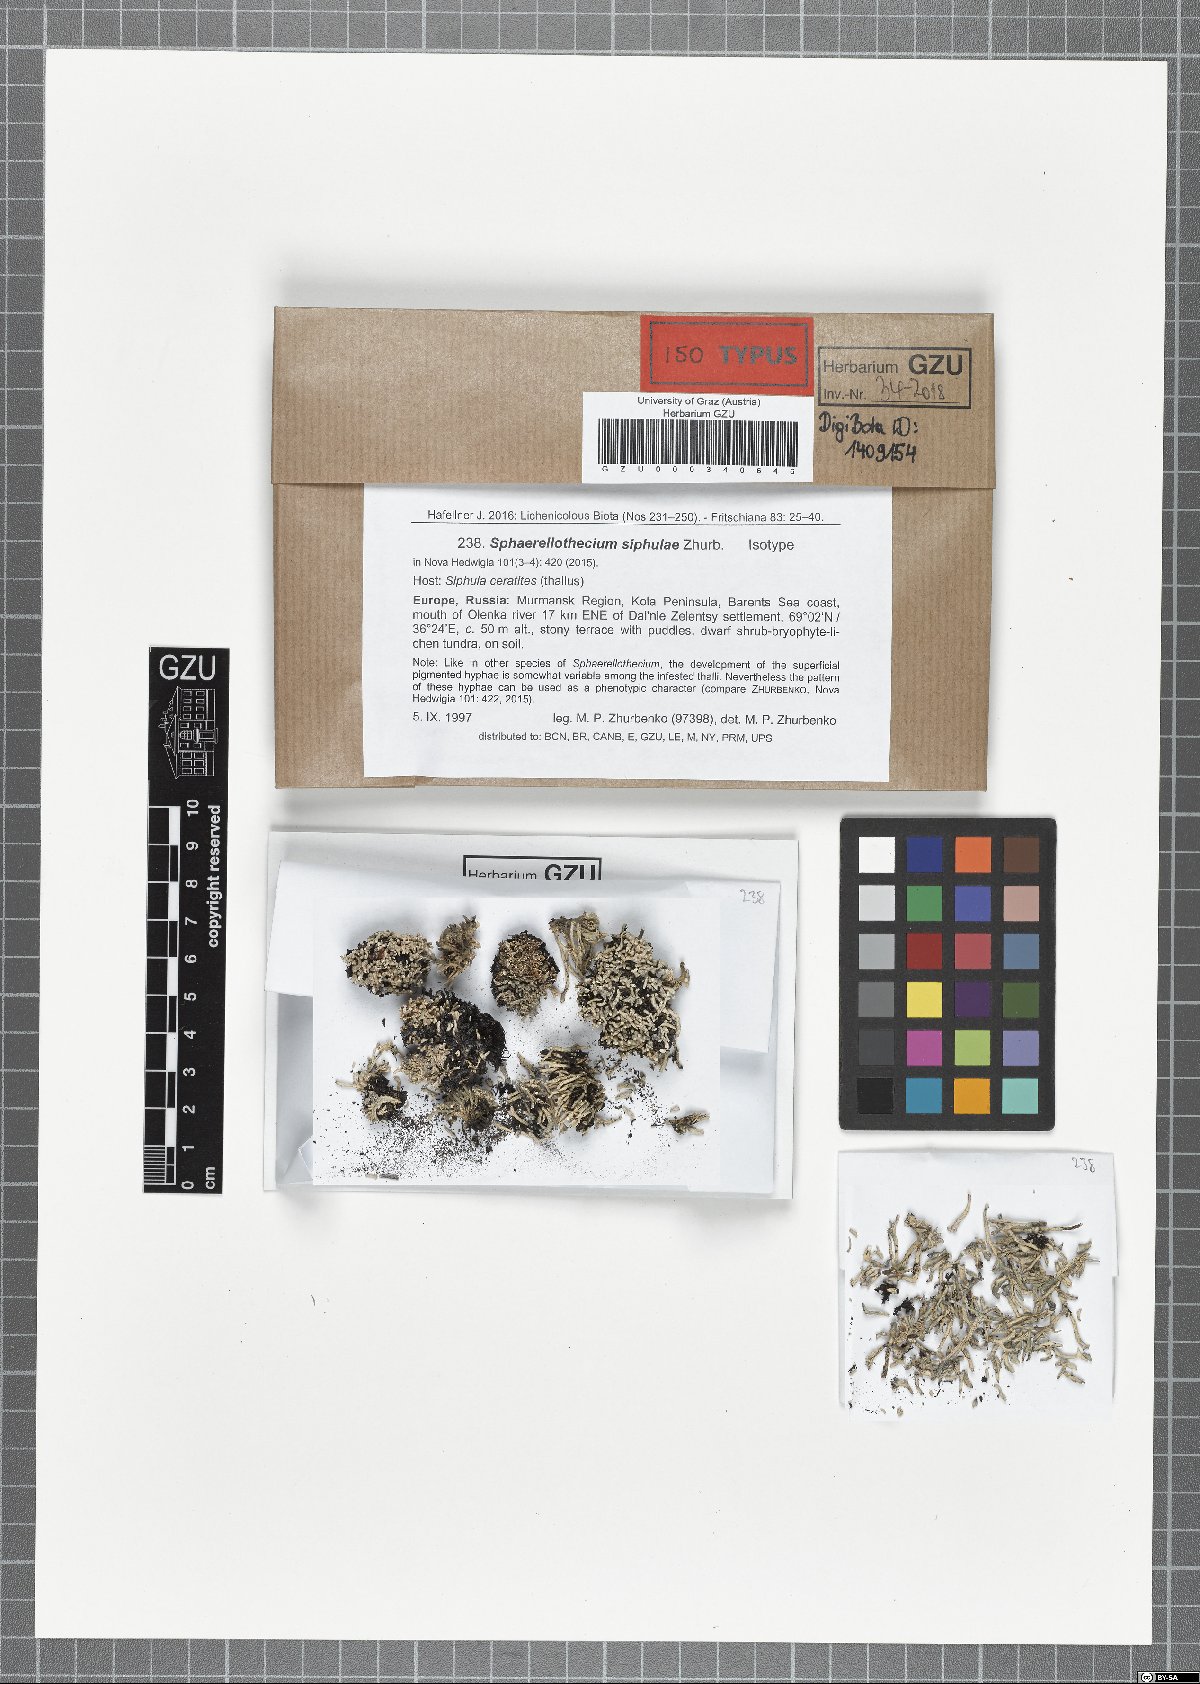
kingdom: Fungi
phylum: Ascomycota
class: Dothideomycetes
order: Mycosphaerellales
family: Mycosphaerellaceae
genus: Sphaerellothecium
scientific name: Sphaerellothecium siphulae
